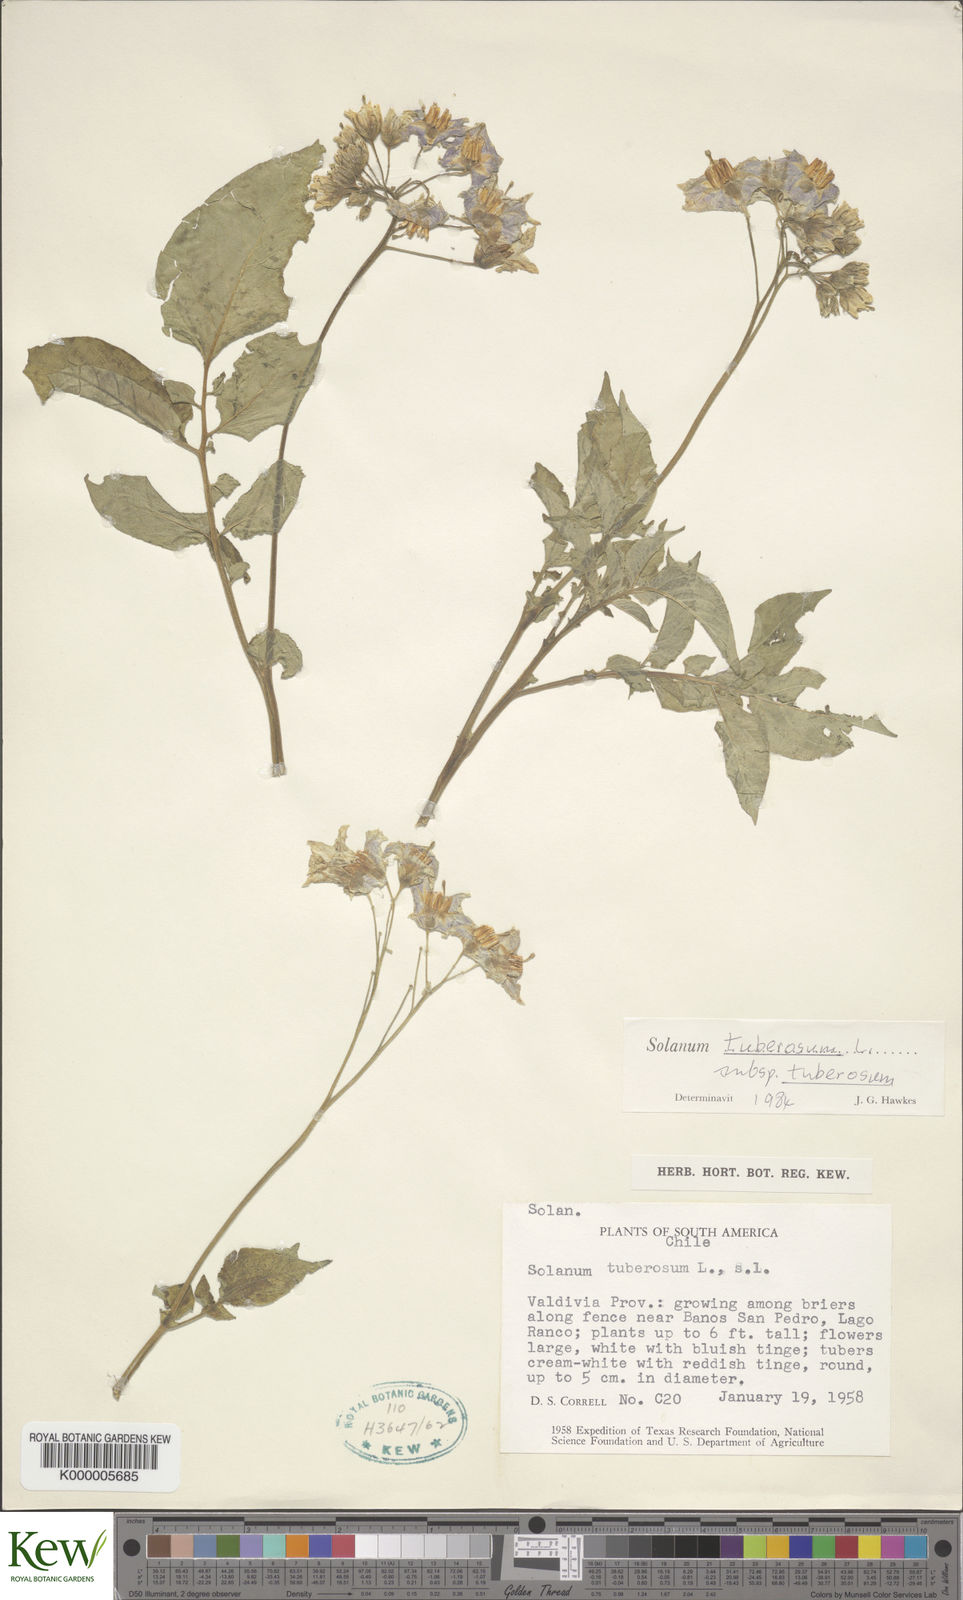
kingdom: Plantae
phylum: Tracheophyta
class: Magnoliopsida
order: Solanales
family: Solanaceae
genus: Solanum
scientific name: Solanum tuberosum
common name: Potato
